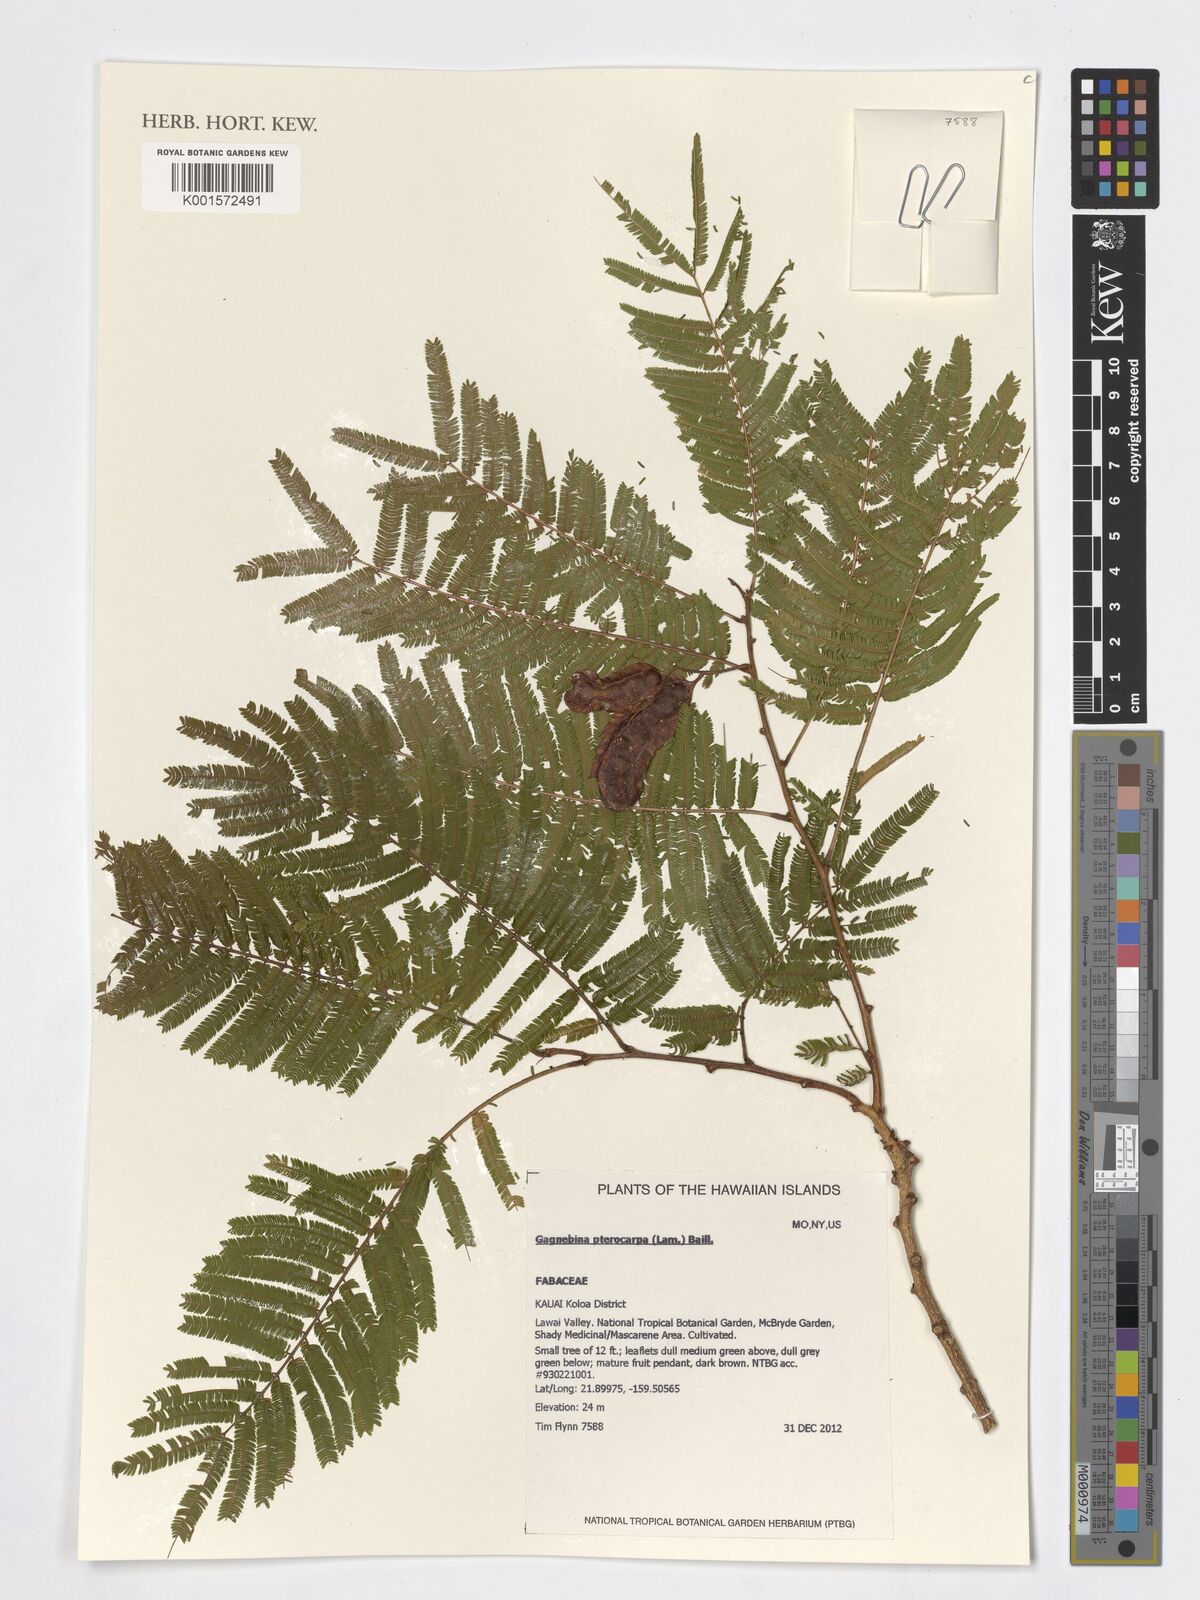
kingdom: Plantae
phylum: Tracheophyta
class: Magnoliopsida
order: Fabales
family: Fabaceae
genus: Gagnebina
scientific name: Gagnebina pterocarpa
